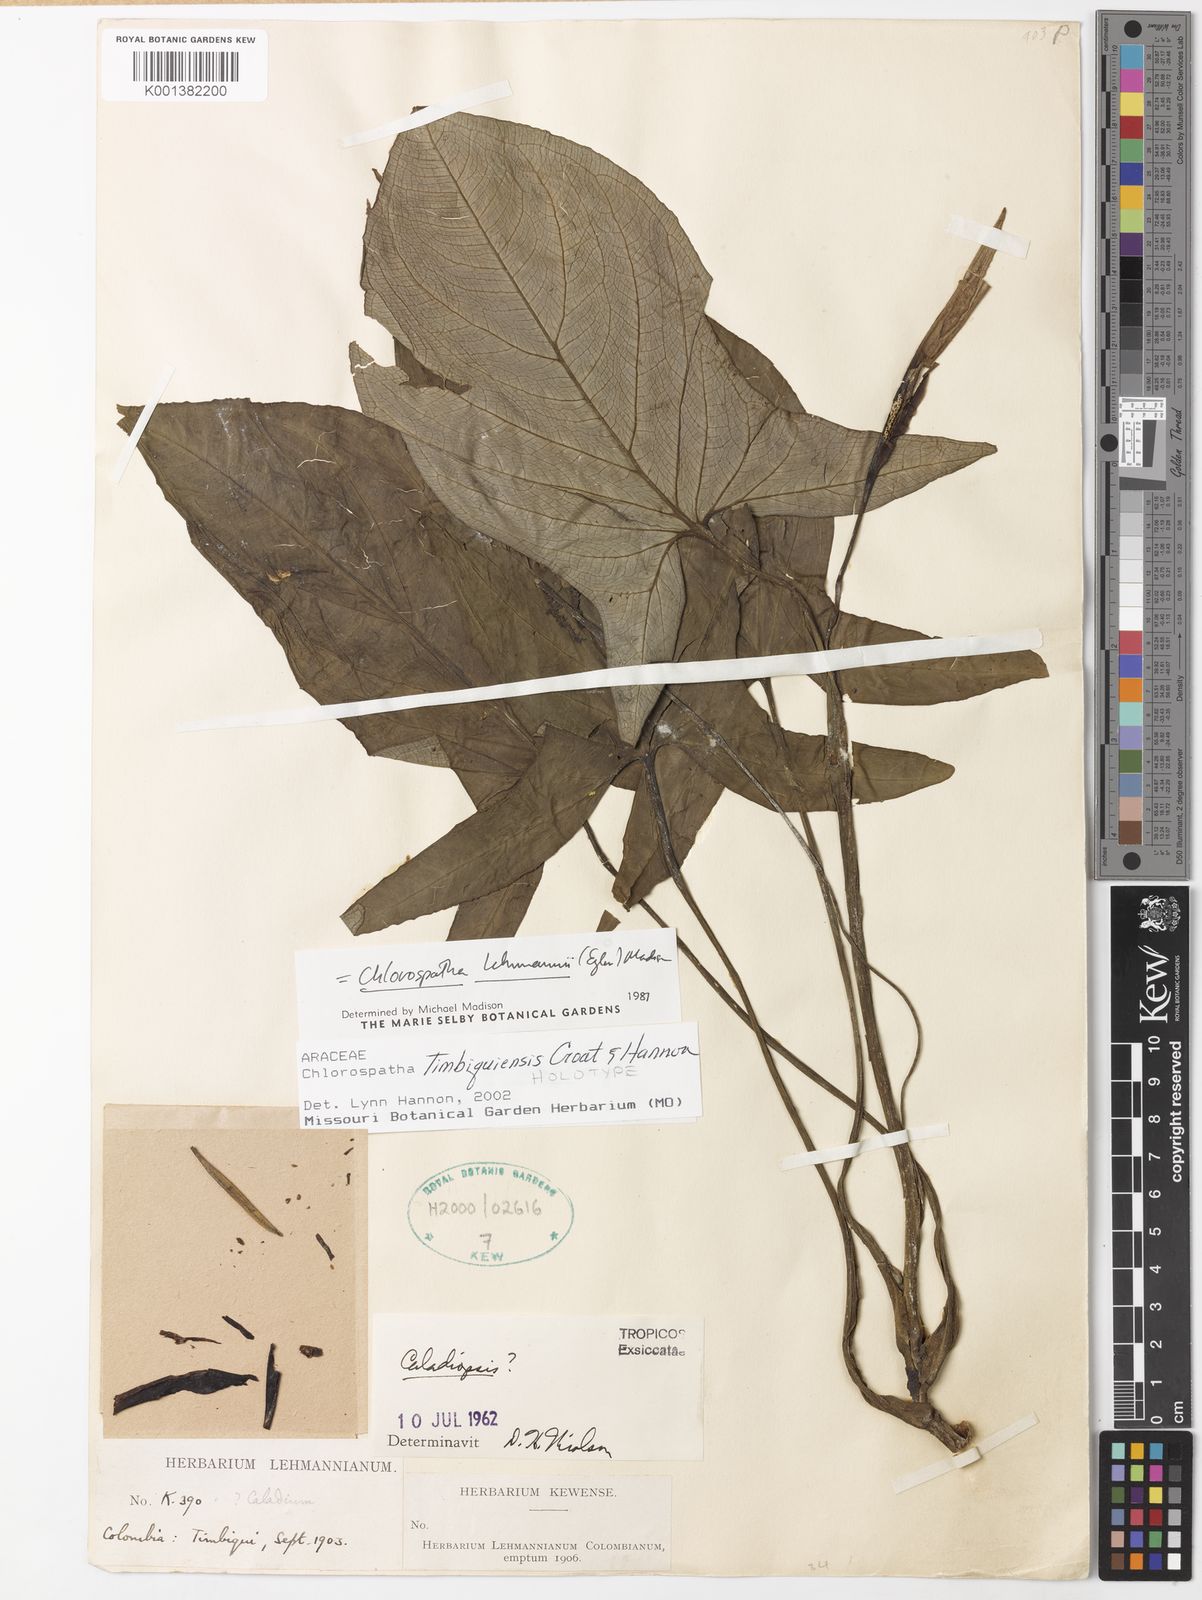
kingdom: Plantae
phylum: Tracheophyta
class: Liliopsida
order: Alismatales
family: Araceae
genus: Chlorospatha
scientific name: Chlorospatha timbiquensis
